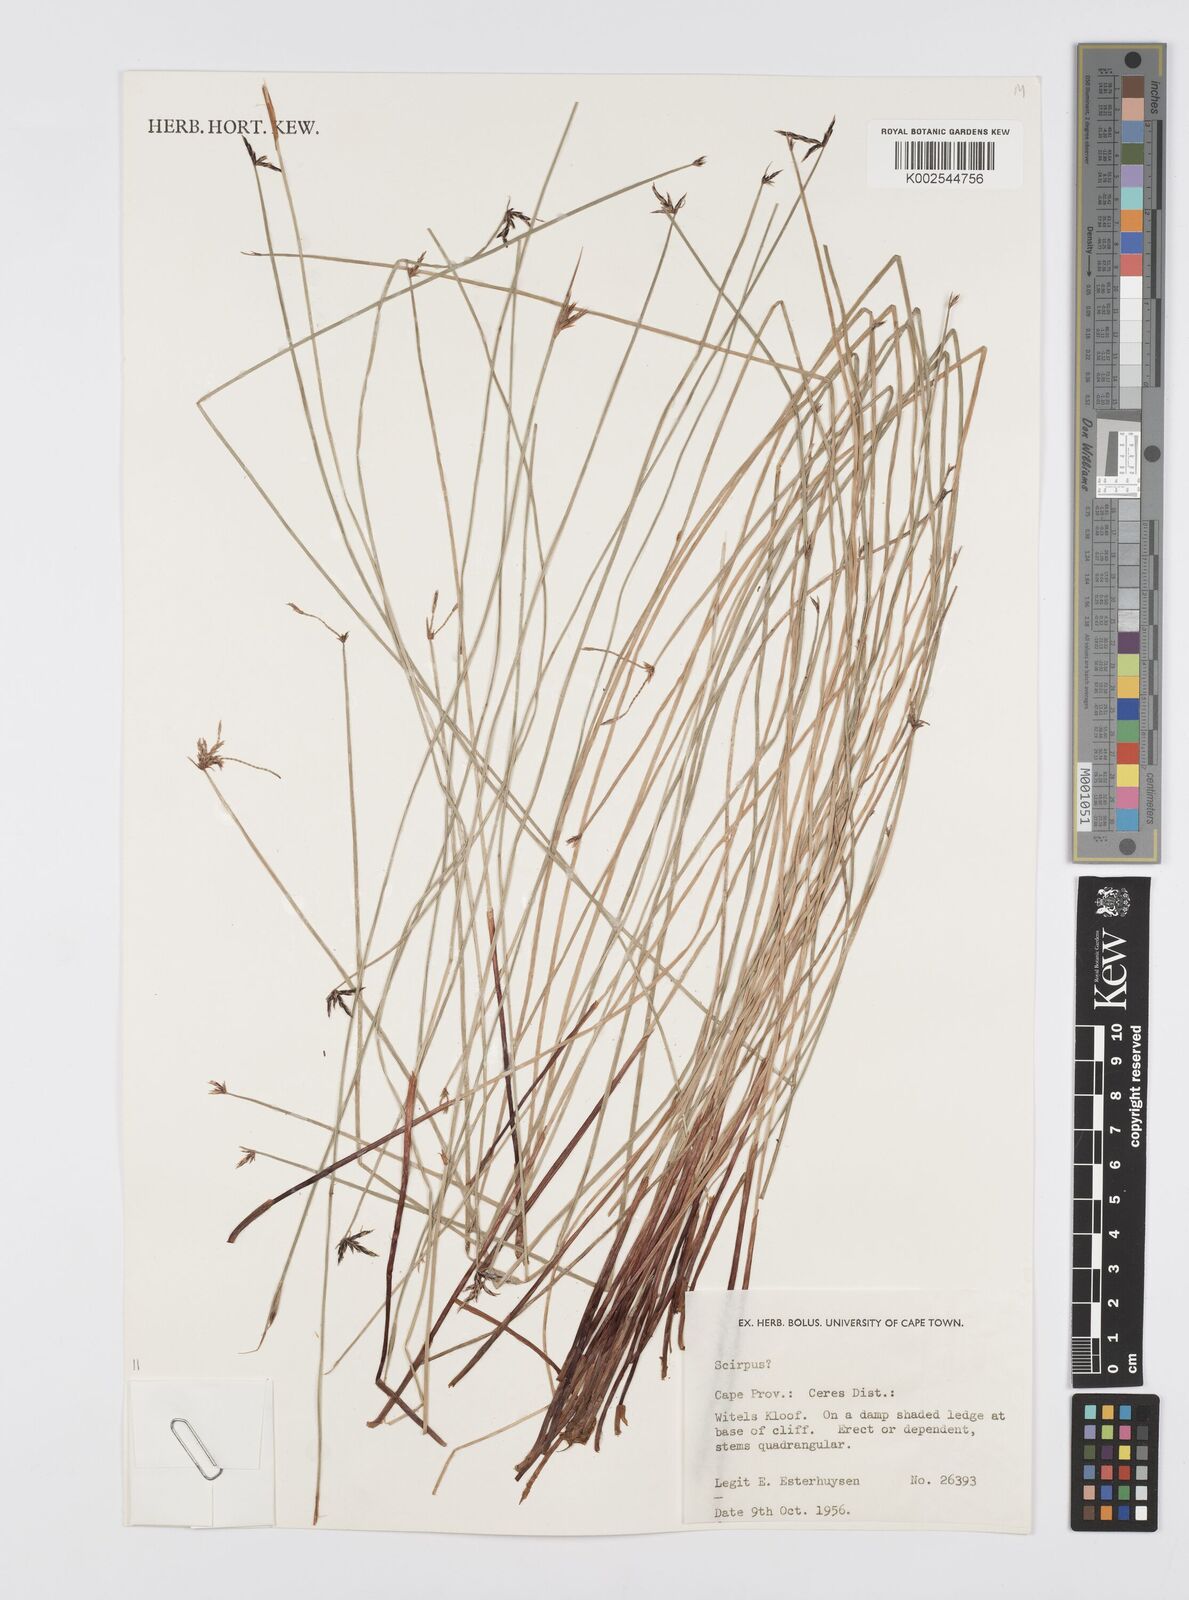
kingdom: Plantae
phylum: Tracheophyta
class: Liliopsida
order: Poales
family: Cyperaceae
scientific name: Cyperaceae
